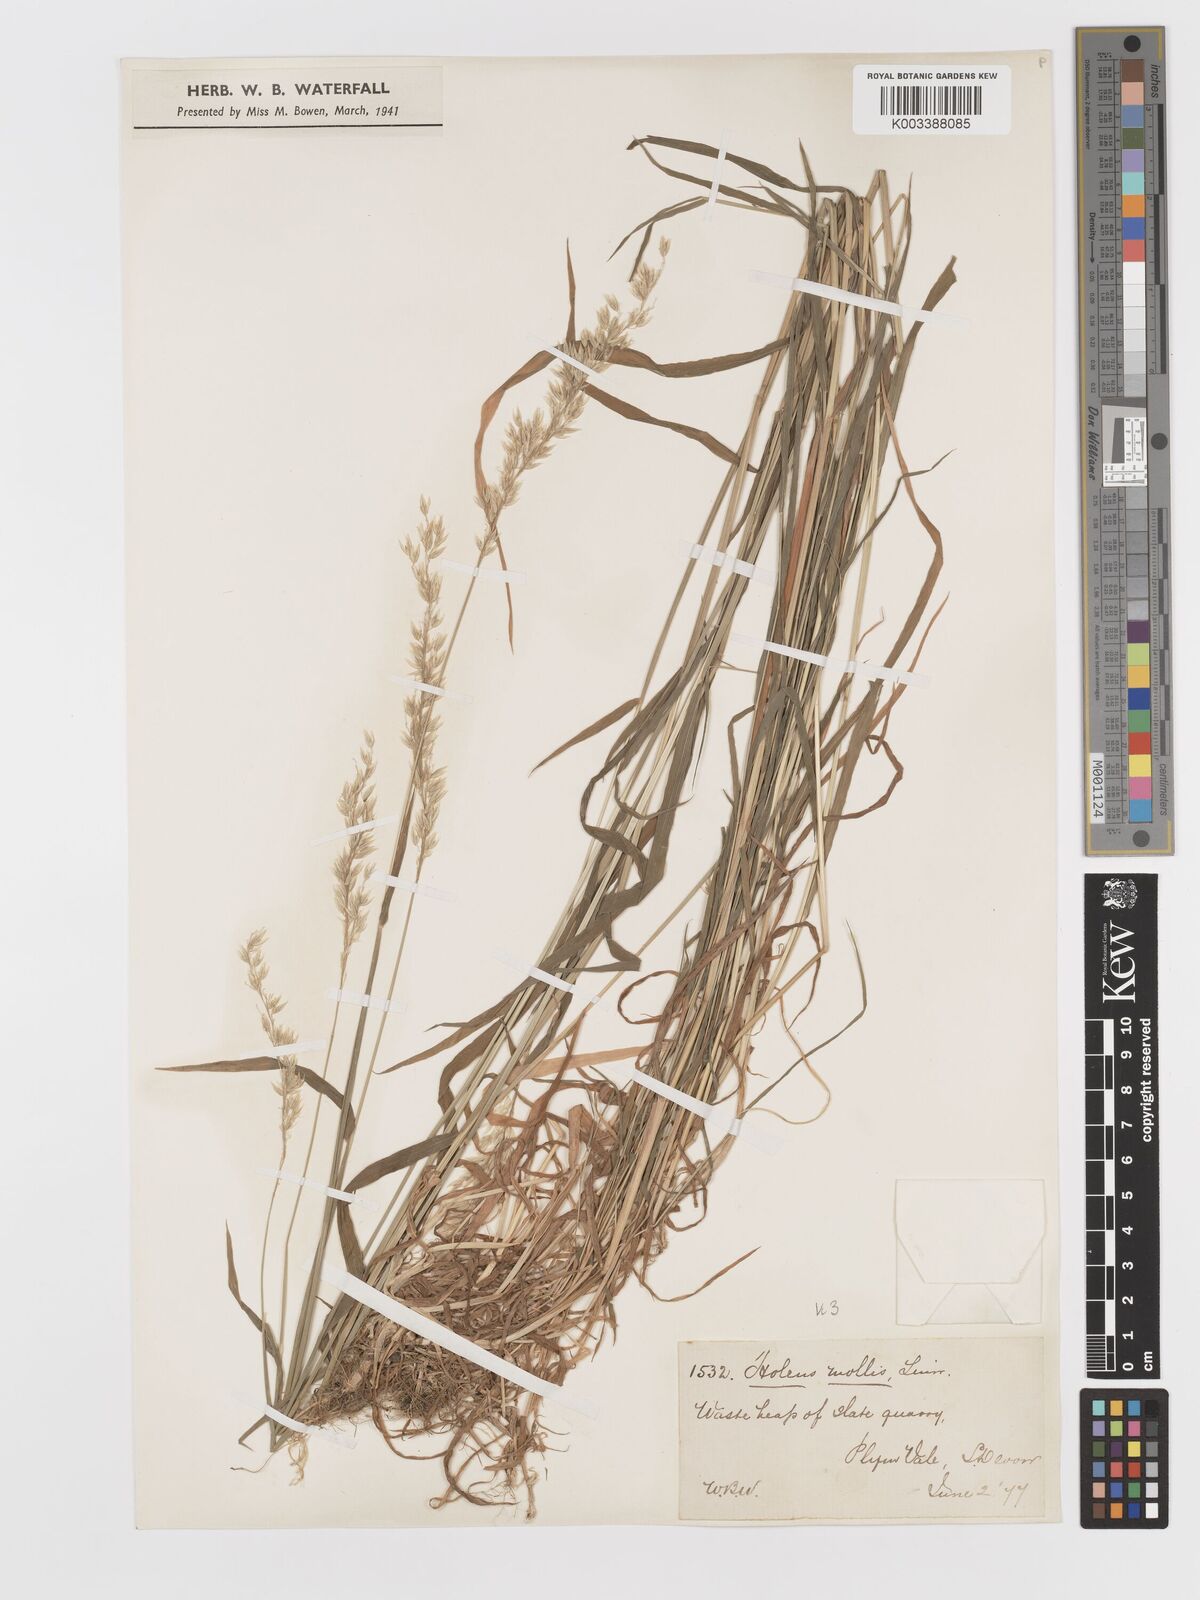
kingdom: Plantae
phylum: Tracheophyta
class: Liliopsida
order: Poales
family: Poaceae
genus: Holcus
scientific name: Holcus mollis
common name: Creeping velvetgrass
